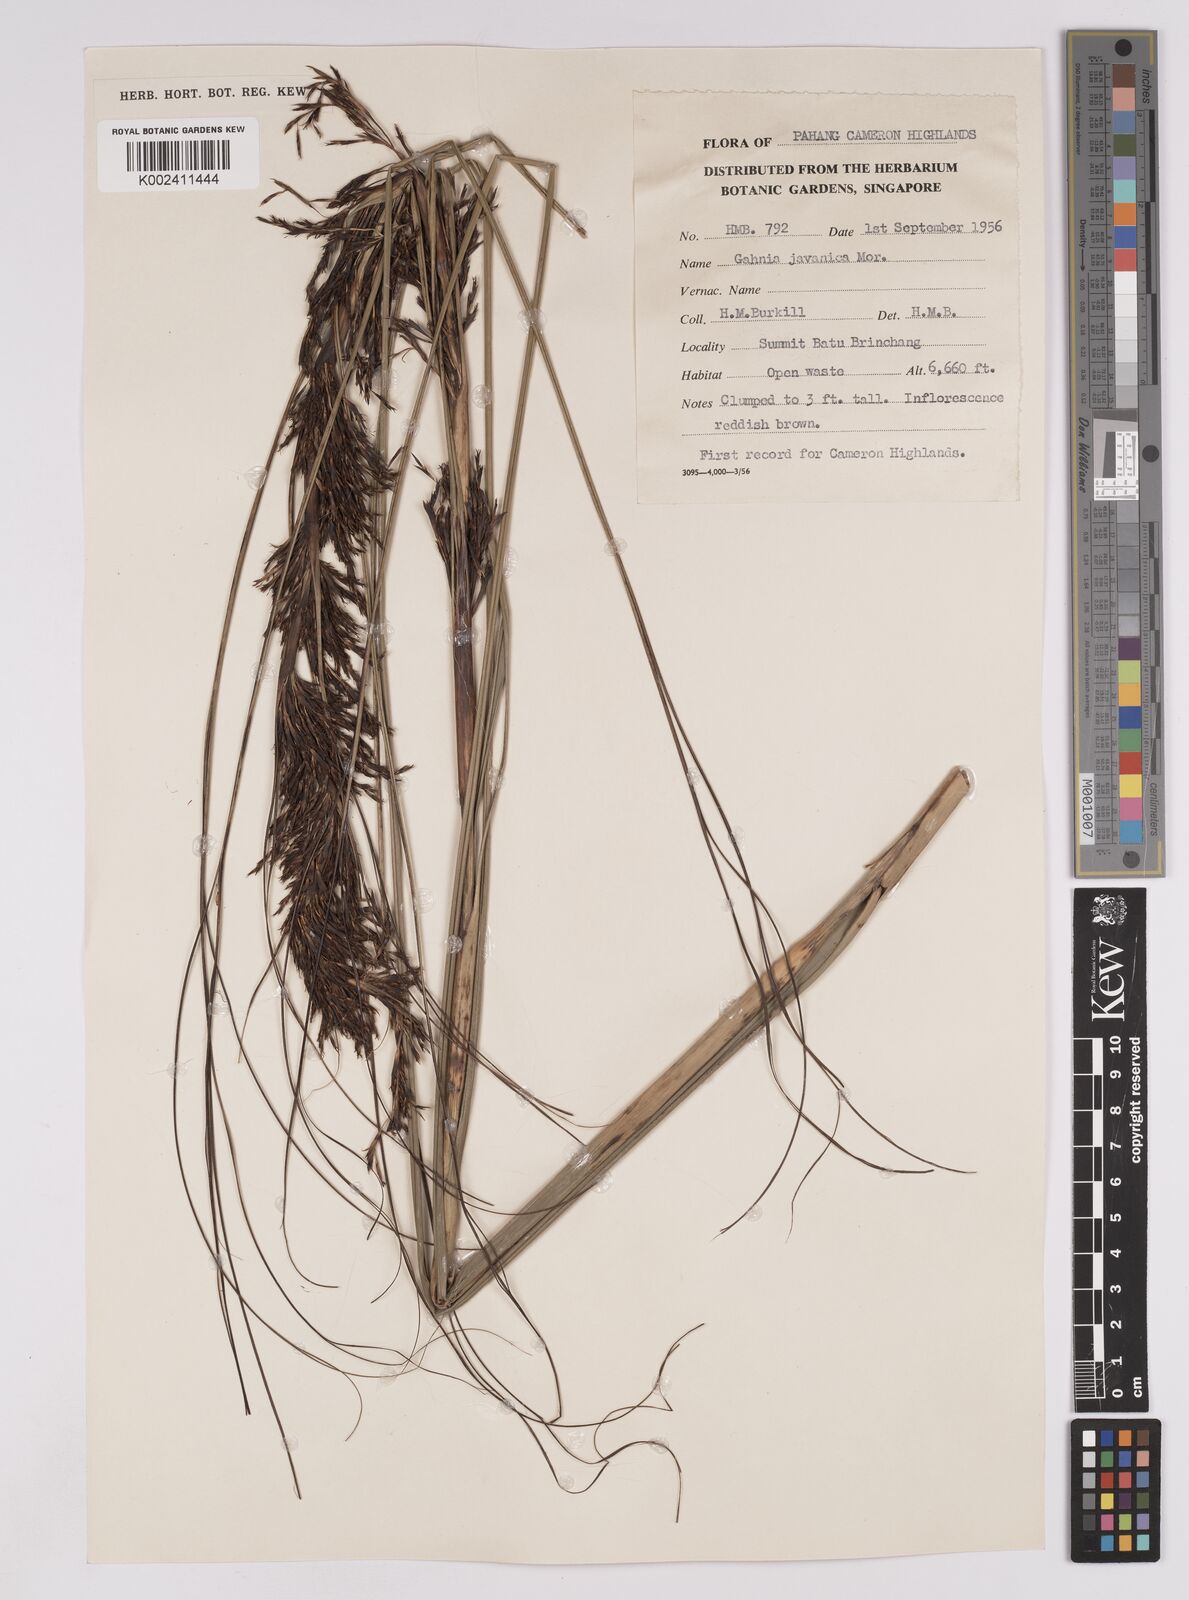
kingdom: Plantae
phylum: Tracheophyta
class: Liliopsida
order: Poales
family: Cyperaceae
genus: Gahnia
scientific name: Gahnia javanica
